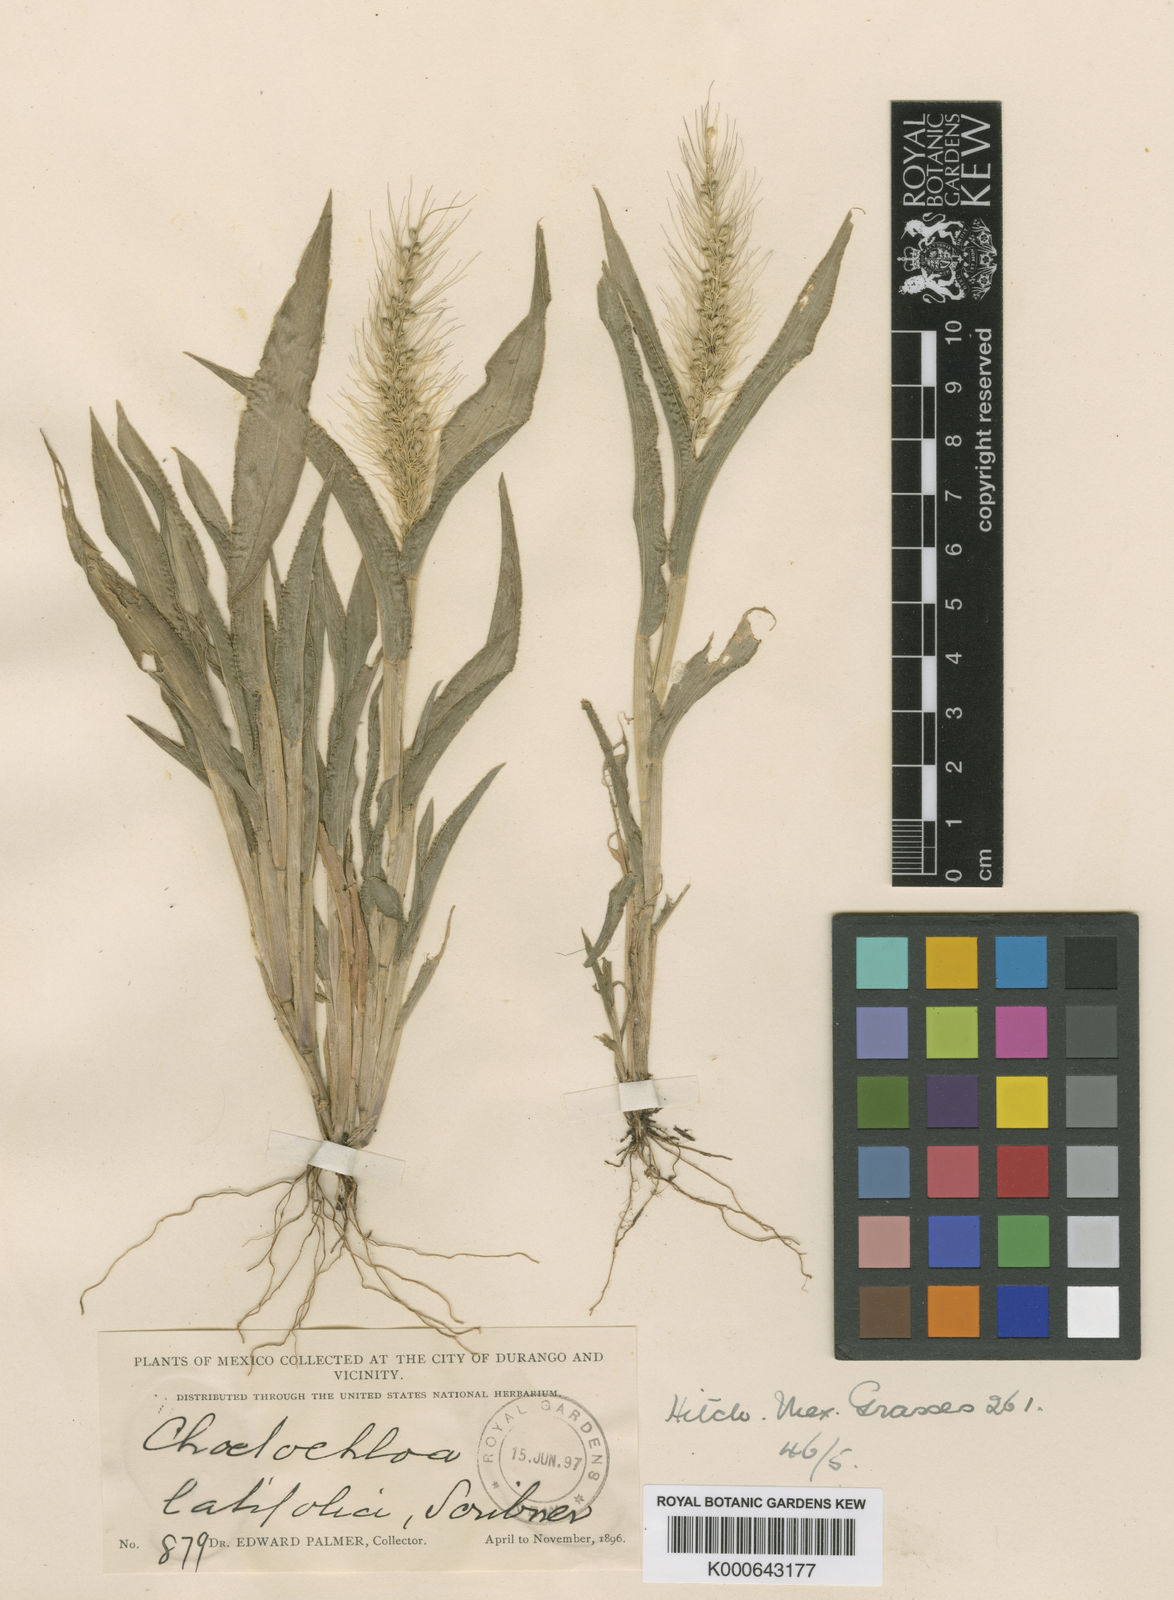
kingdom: Plantae
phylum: Tracheophyta
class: Liliopsida
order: Poales
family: Poaceae
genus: Setaria
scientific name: Setaria latifolia
